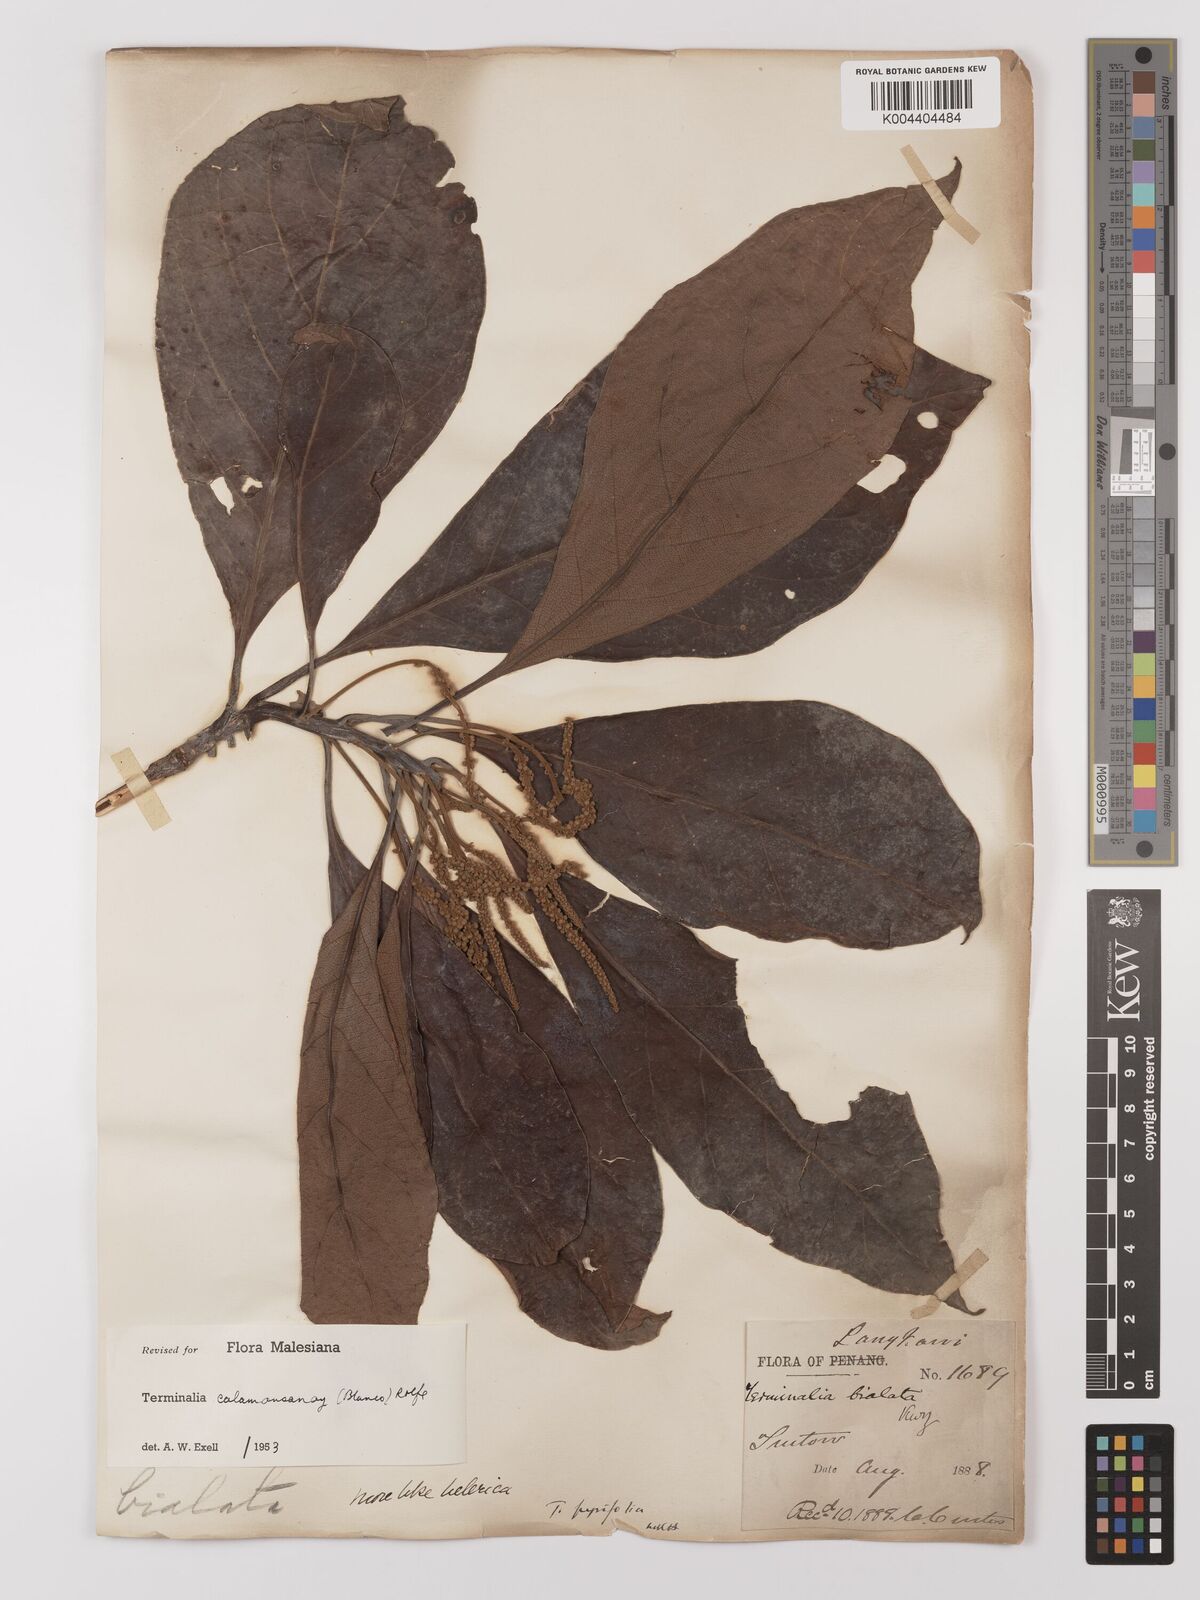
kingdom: Plantae
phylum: Tracheophyta
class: Magnoliopsida
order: Myrtales
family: Combretaceae
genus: Terminalia
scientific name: Terminalia calamansanai
